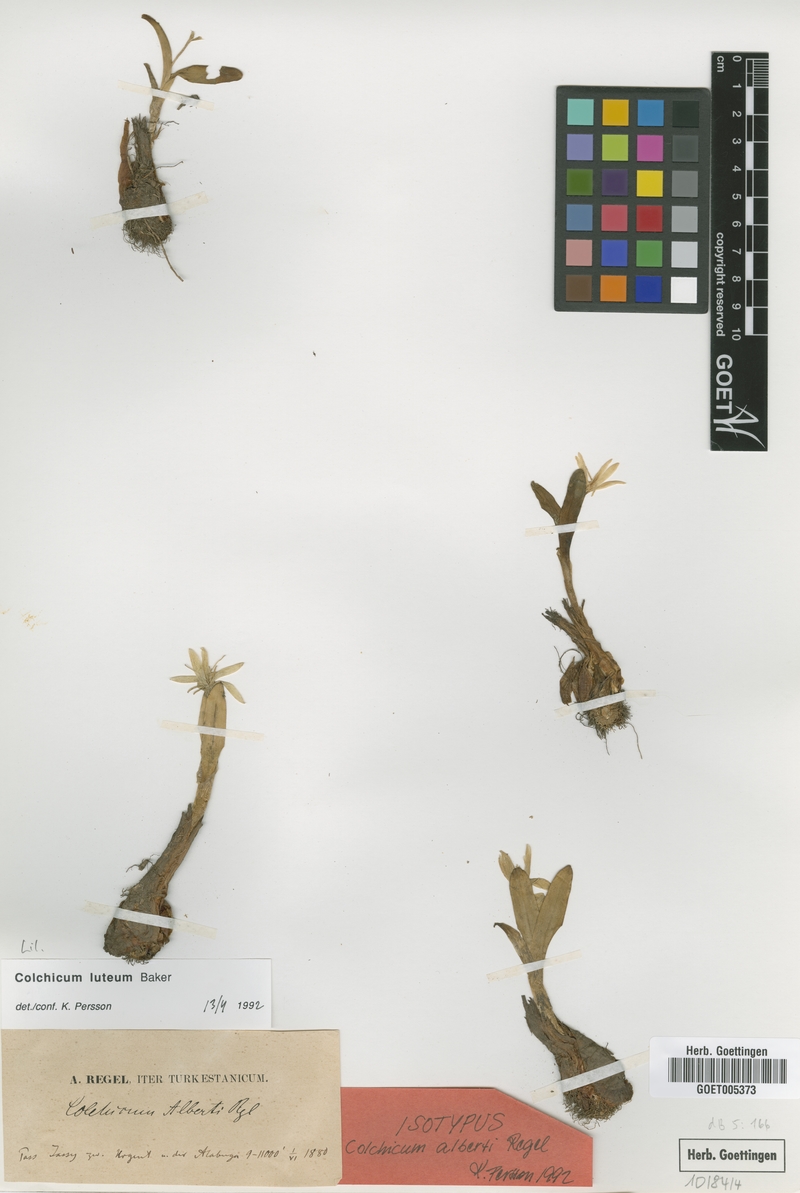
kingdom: Plantae
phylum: Tracheophyta
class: Liliopsida
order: Liliales
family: Colchicaceae
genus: Colchicum
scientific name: Colchicum luteum
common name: Indian colchicum
